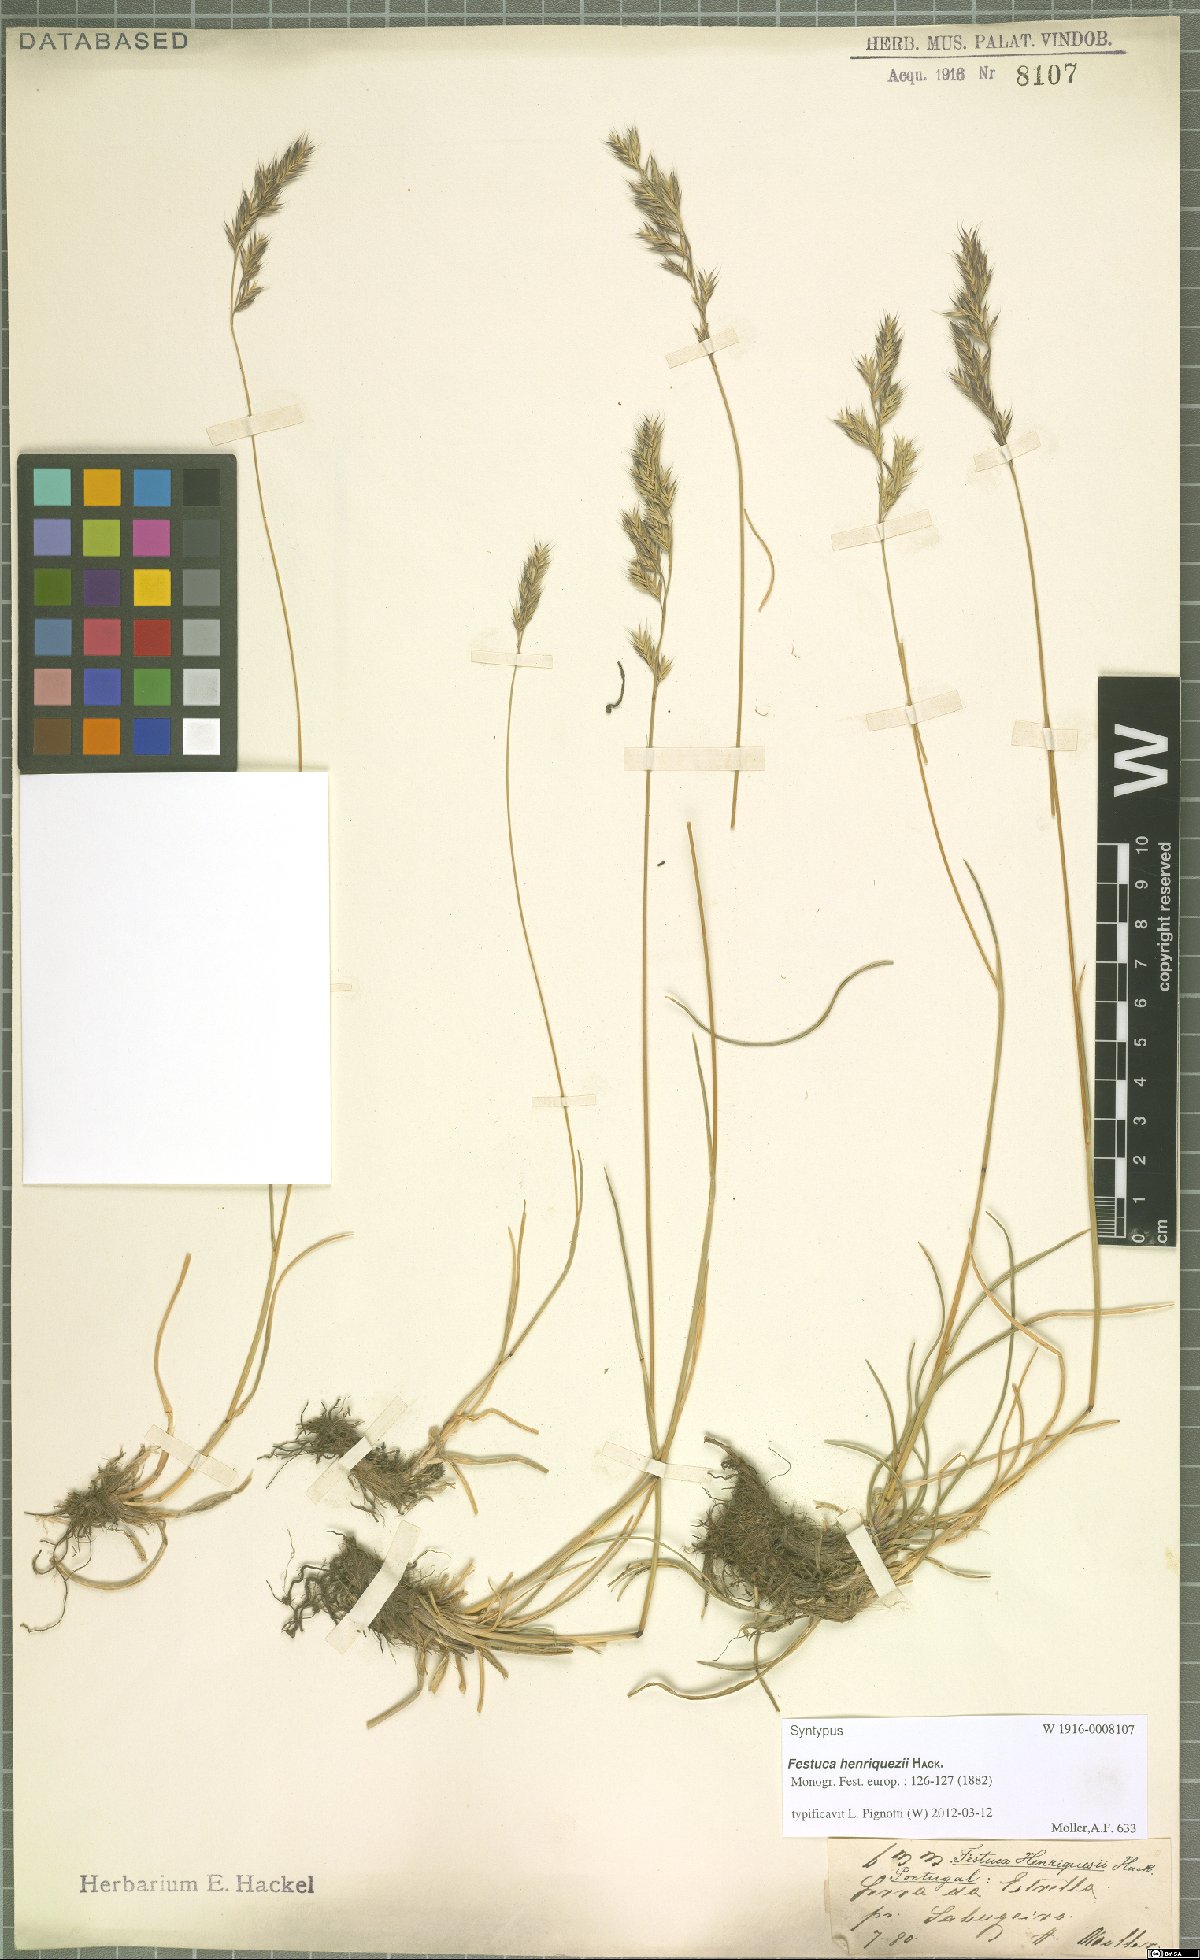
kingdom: Plantae
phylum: Tracheophyta
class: Liliopsida
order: Poales
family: Poaceae
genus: Festuca
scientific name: Festuca henriquezii
